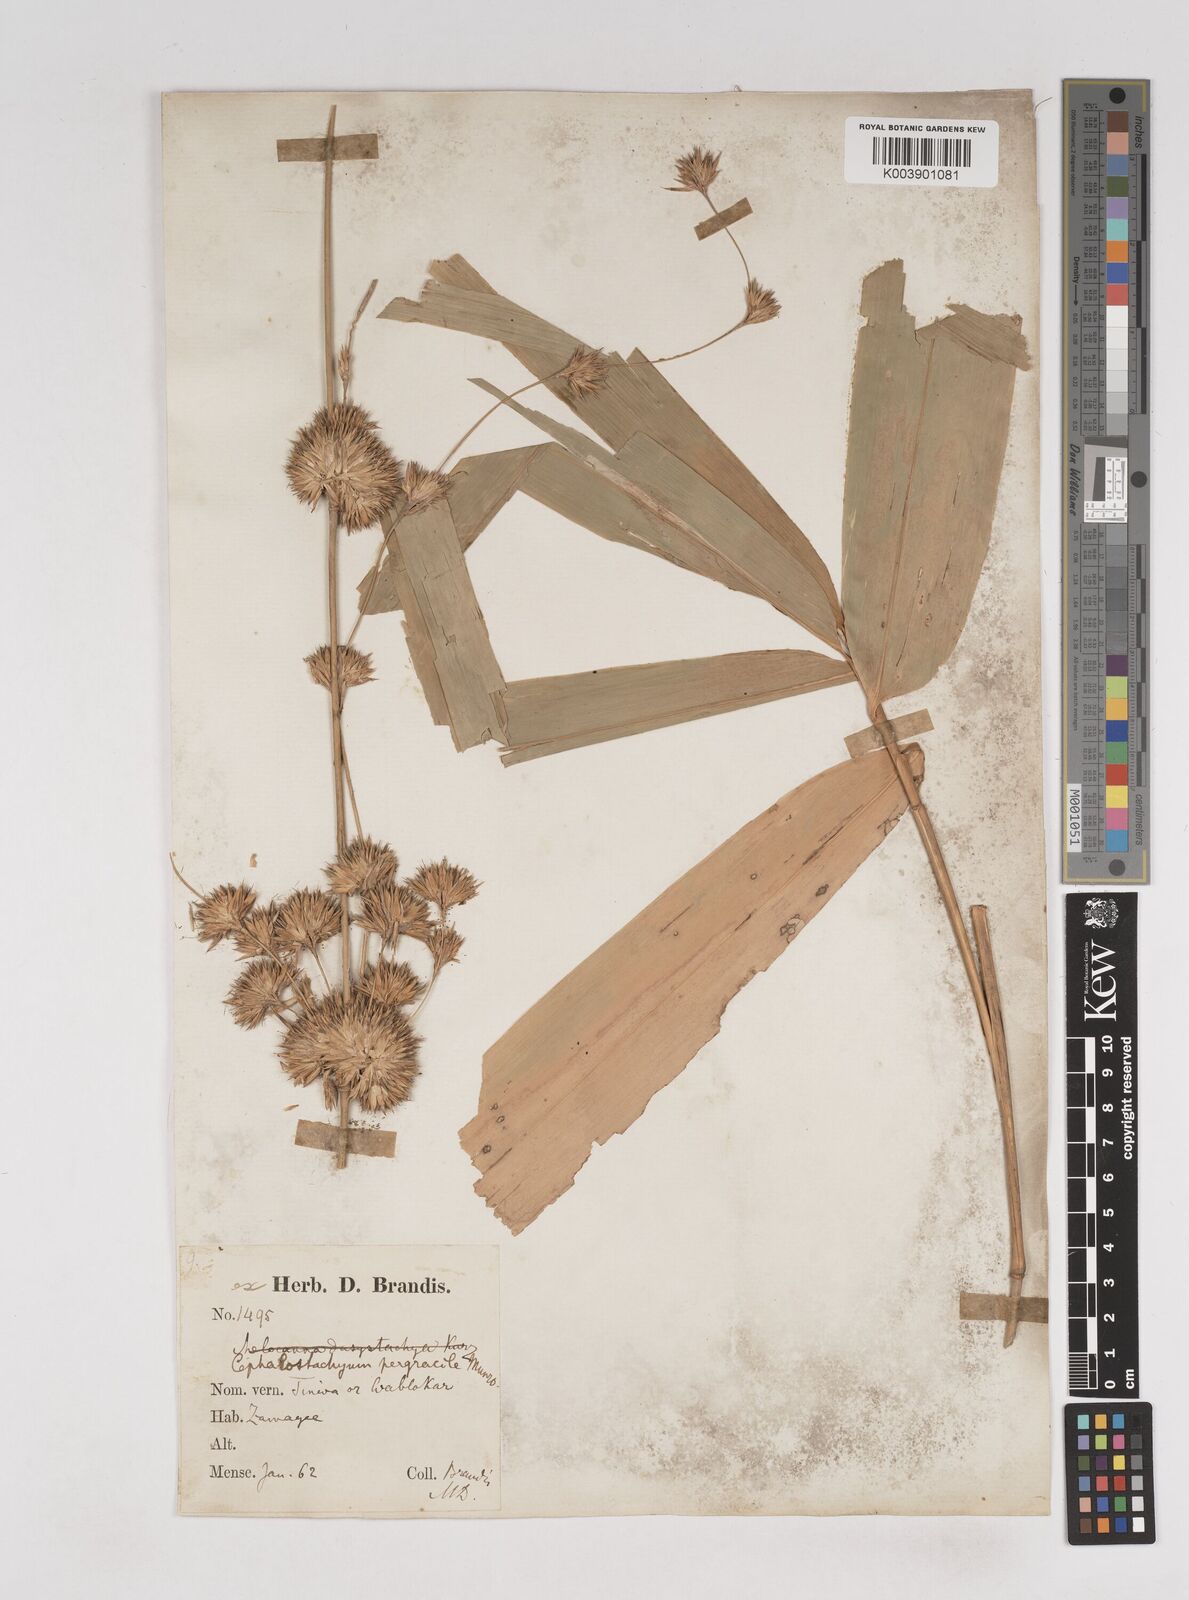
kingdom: Plantae
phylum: Tracheophyta
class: Liliopsida
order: Poales
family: Poaceae
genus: Schizostachyum
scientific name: Schizostachyum pergracile
